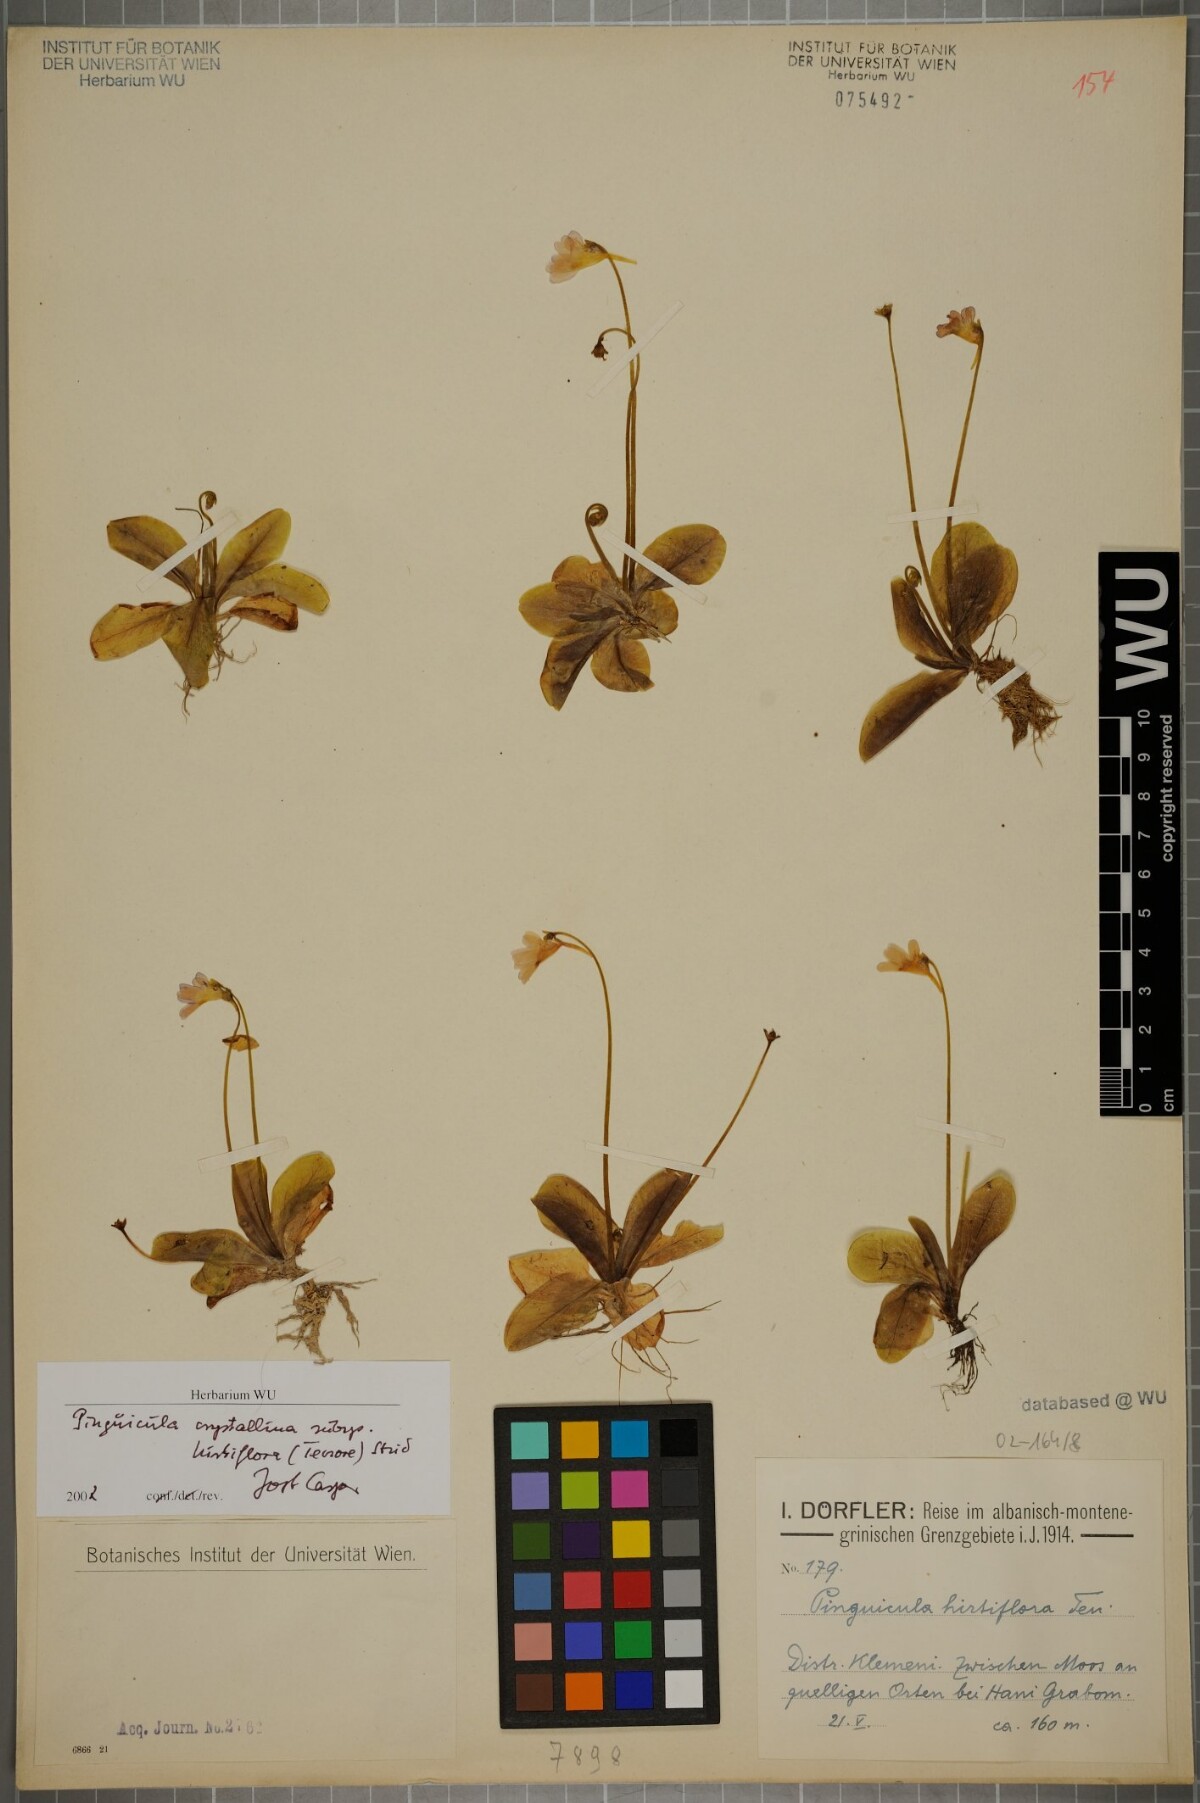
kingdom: Plantae
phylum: Tracheophyta
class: Magnoliopsida
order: Lamiales
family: Lentibulariaceae
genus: Pinguicula
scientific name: Pinguicula crystallina
